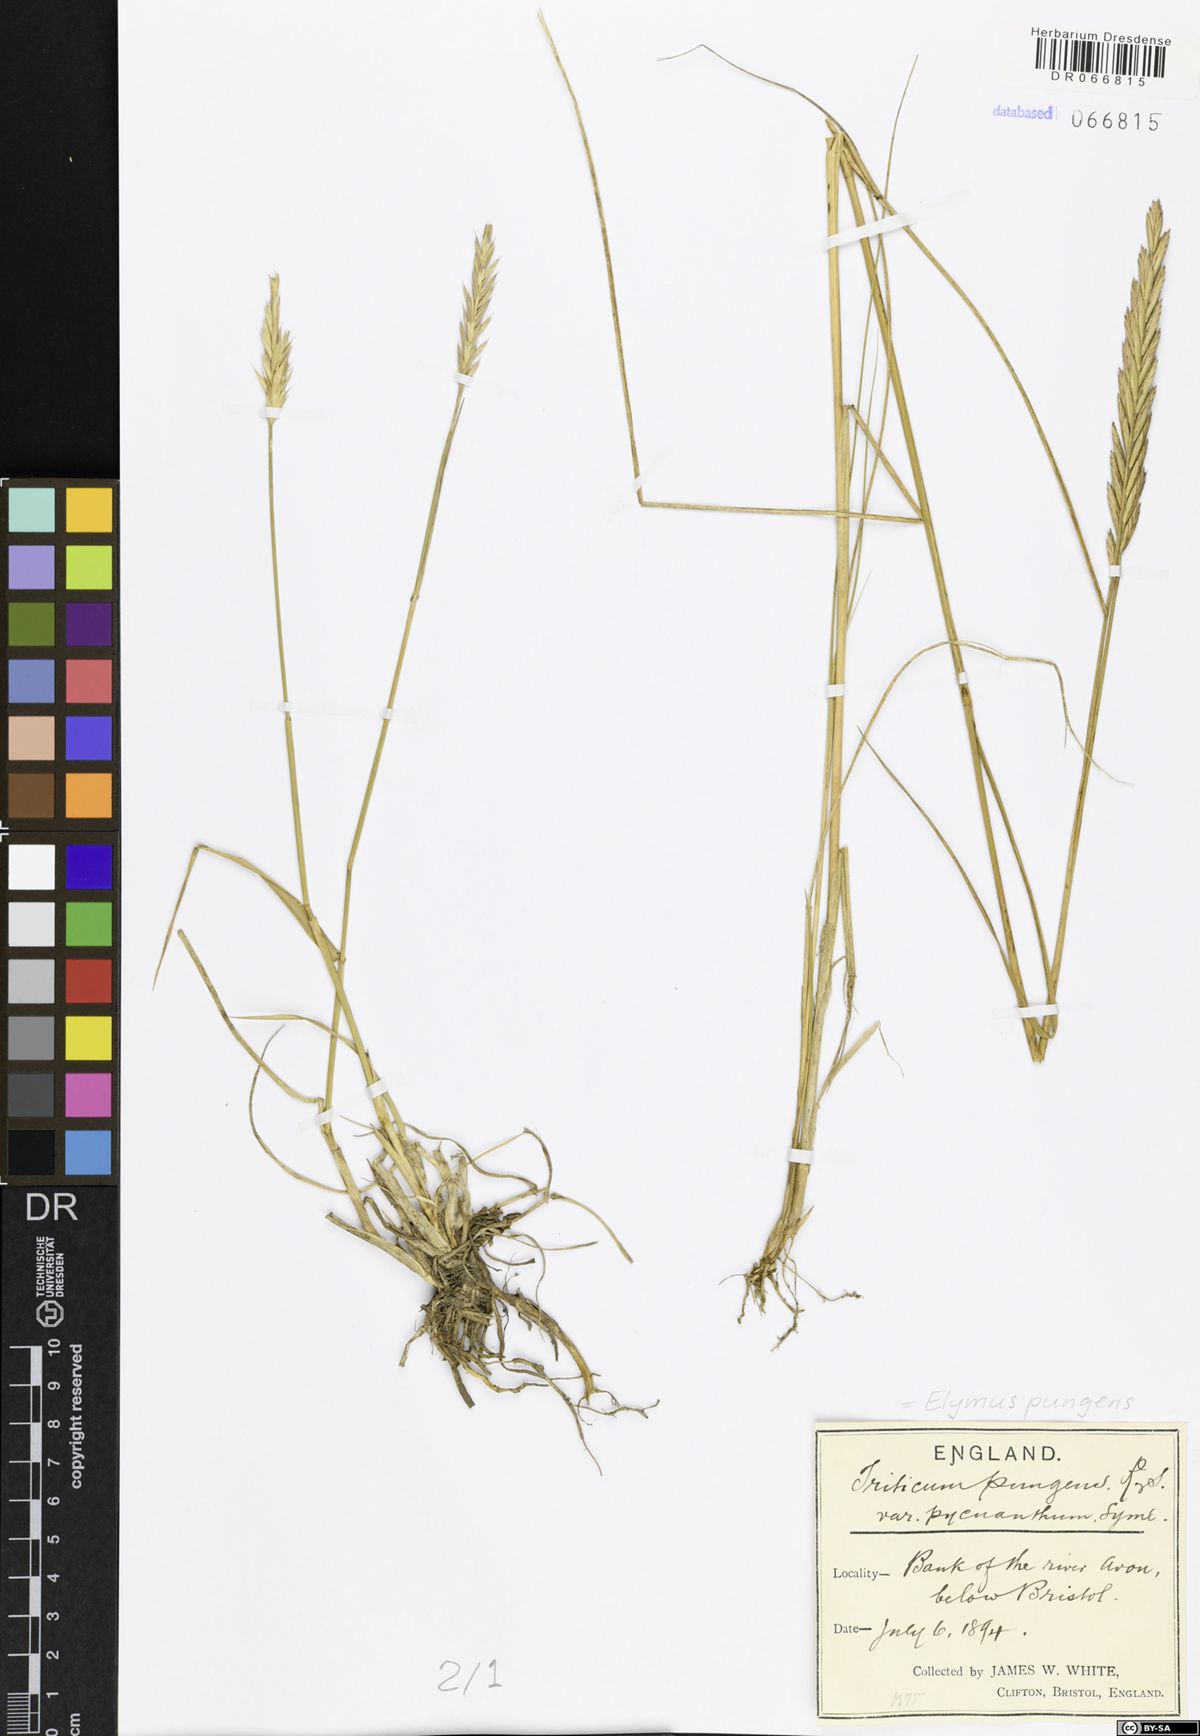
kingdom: Plantae
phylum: Tracheophyta
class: Liliopsida
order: Poales
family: Poaceae
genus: Elymus
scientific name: Elymus pungens
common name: Sea couch
